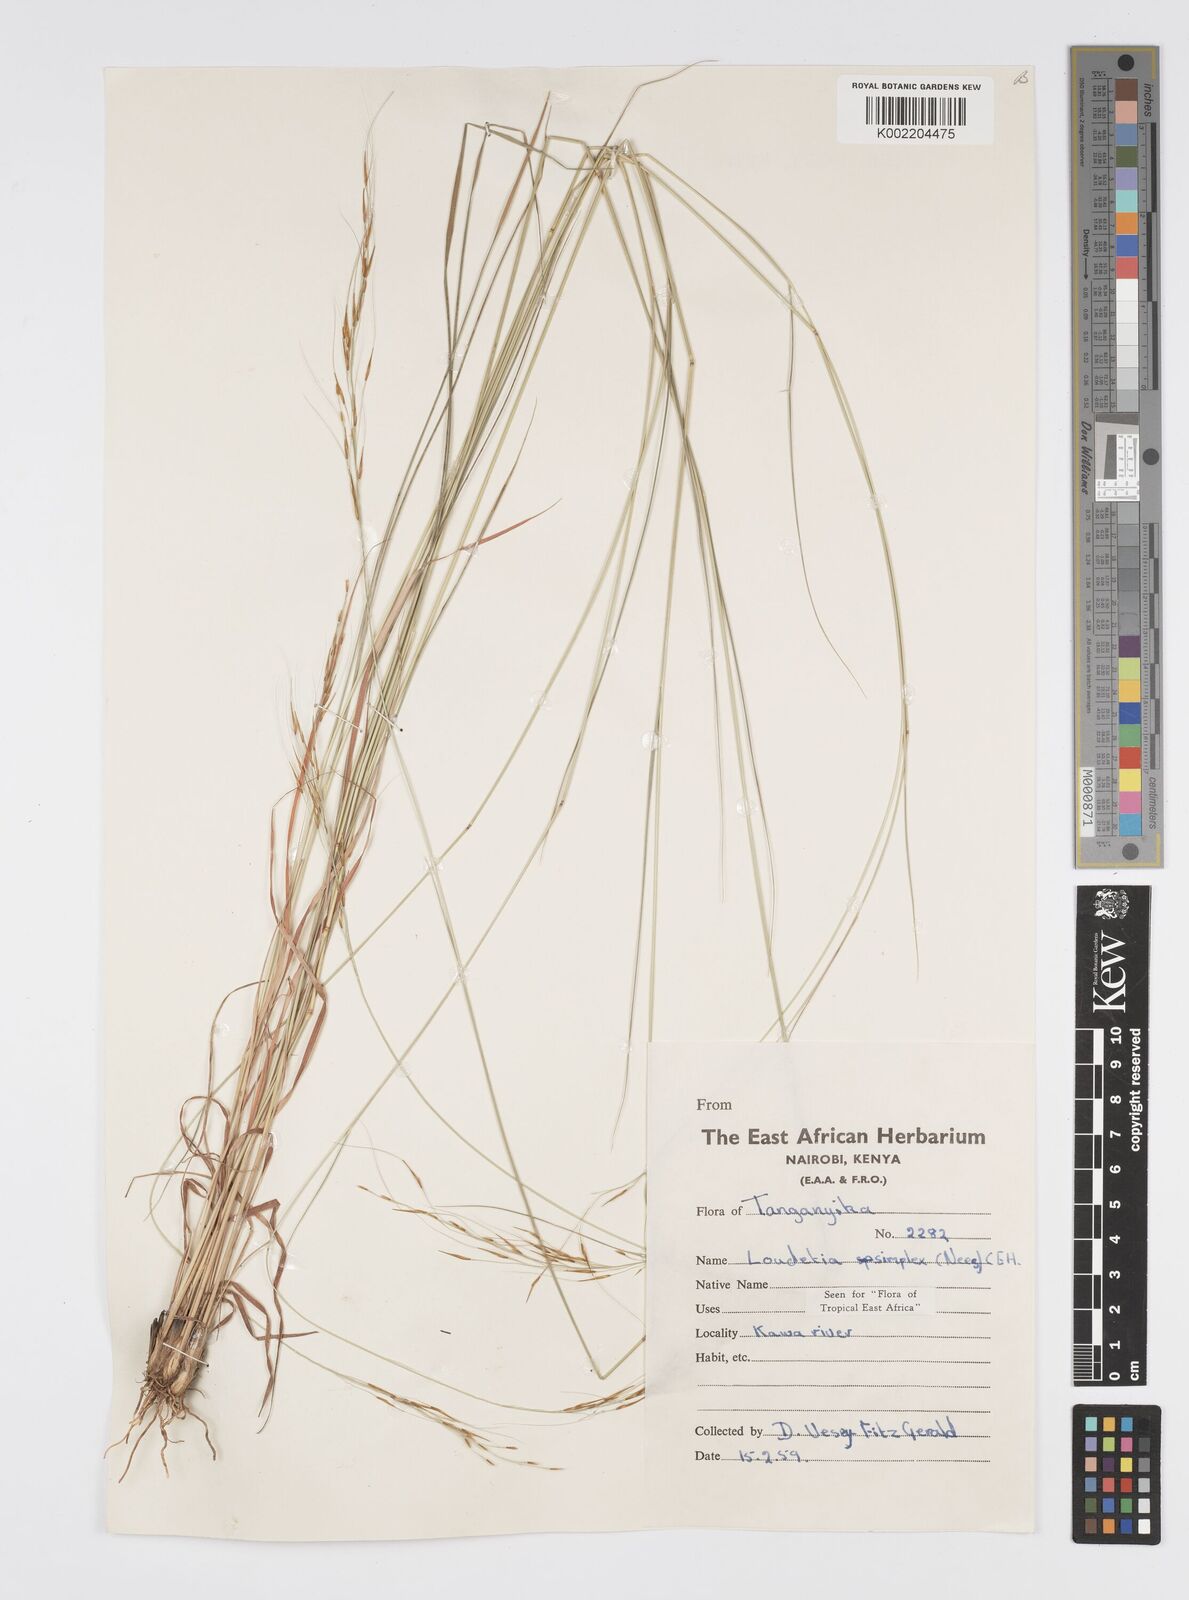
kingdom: Plantae
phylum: Tracheophyta
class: Liliopsida
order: Poales
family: Poaceae
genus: Loudetia
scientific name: Loudetia simplex
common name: Common russet grass
